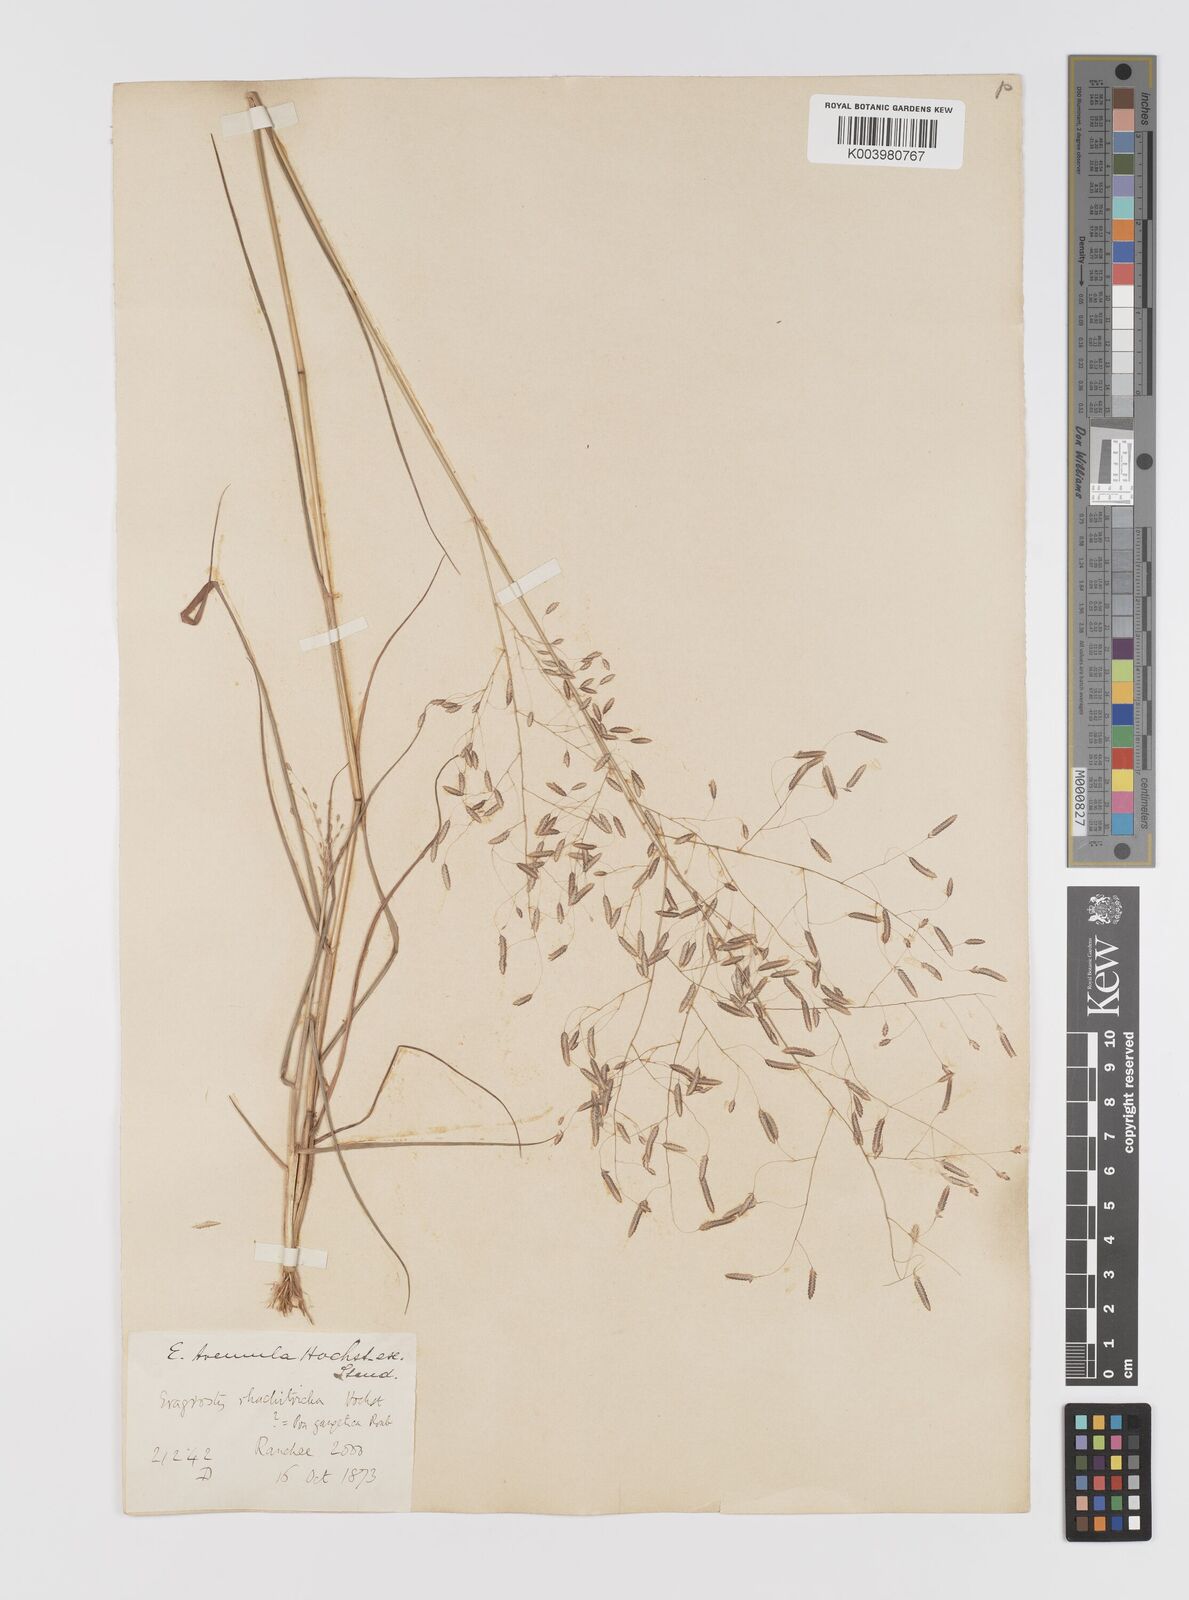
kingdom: Plantae
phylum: Tracheophyta
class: Liliopsida
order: Poales
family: Poaceae
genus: Eragrostis
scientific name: Eragrostis tremula
